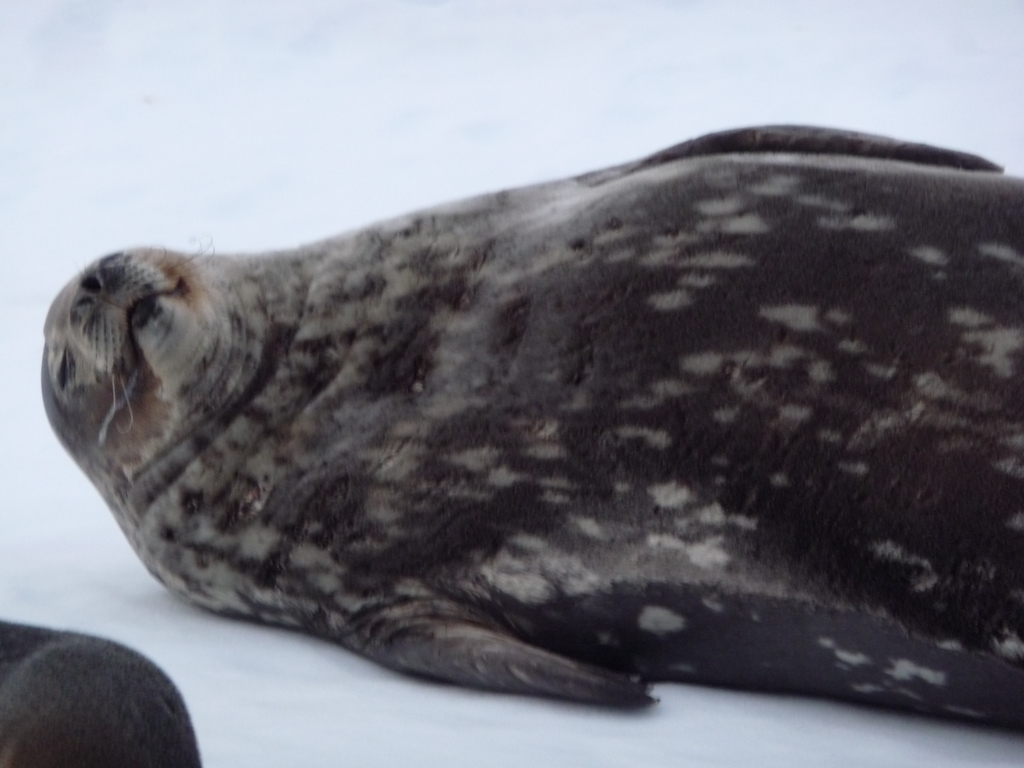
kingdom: Animalia
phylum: Chordata
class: Mammalia
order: Carnivora
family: Phocidae
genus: Leptonychotes
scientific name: Leptonychotes weddellii
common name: Weddell Seal
